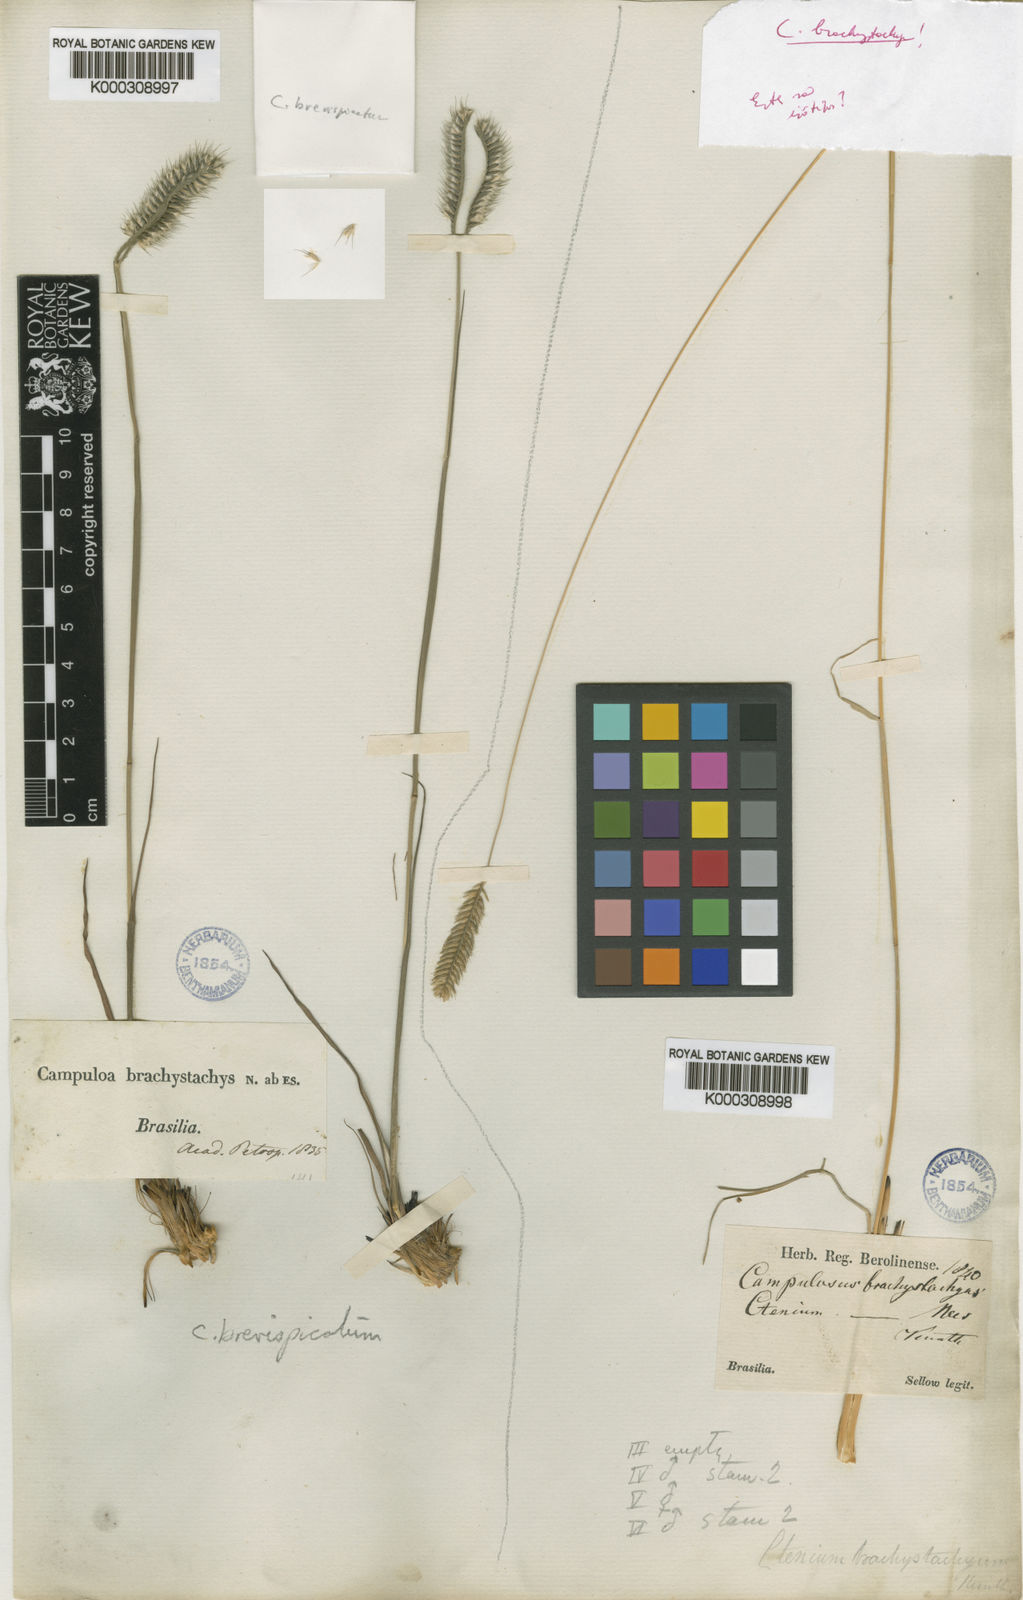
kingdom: Plantae
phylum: Tracheophyta
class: Liliopsida
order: Poales
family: Poaceae
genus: Ctenium
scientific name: Ctenium brachystachyum
